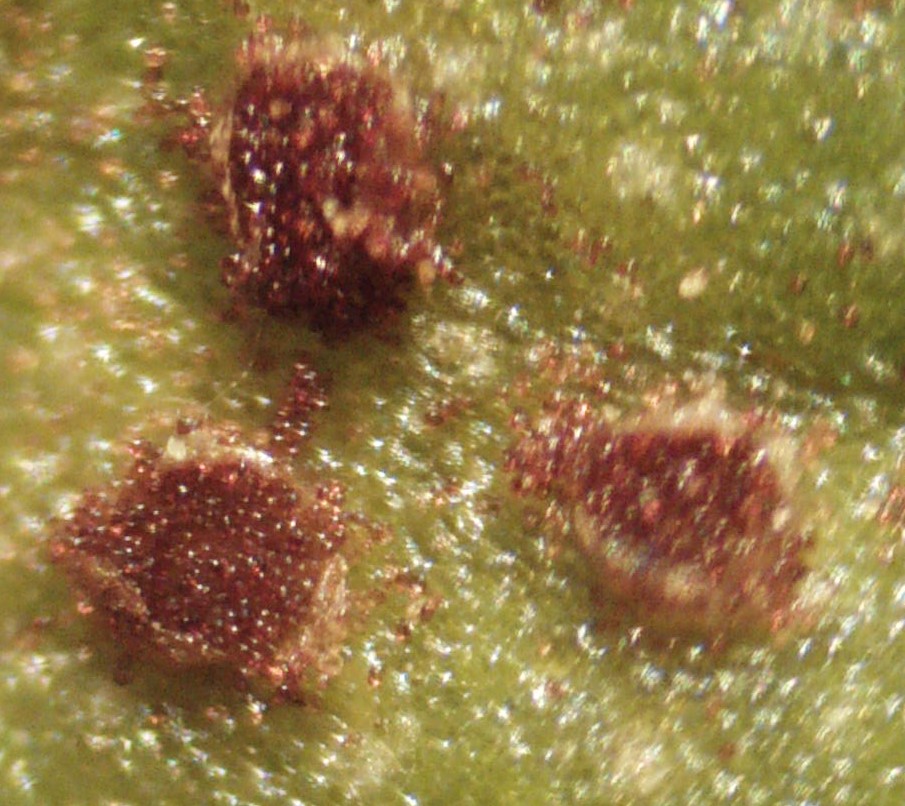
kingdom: Fungi
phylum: Basidiomycota
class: Pucciniomycetes
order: Pucciniales
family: Pucciniaceae
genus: Uromyces
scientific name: Uromyces rumicis
